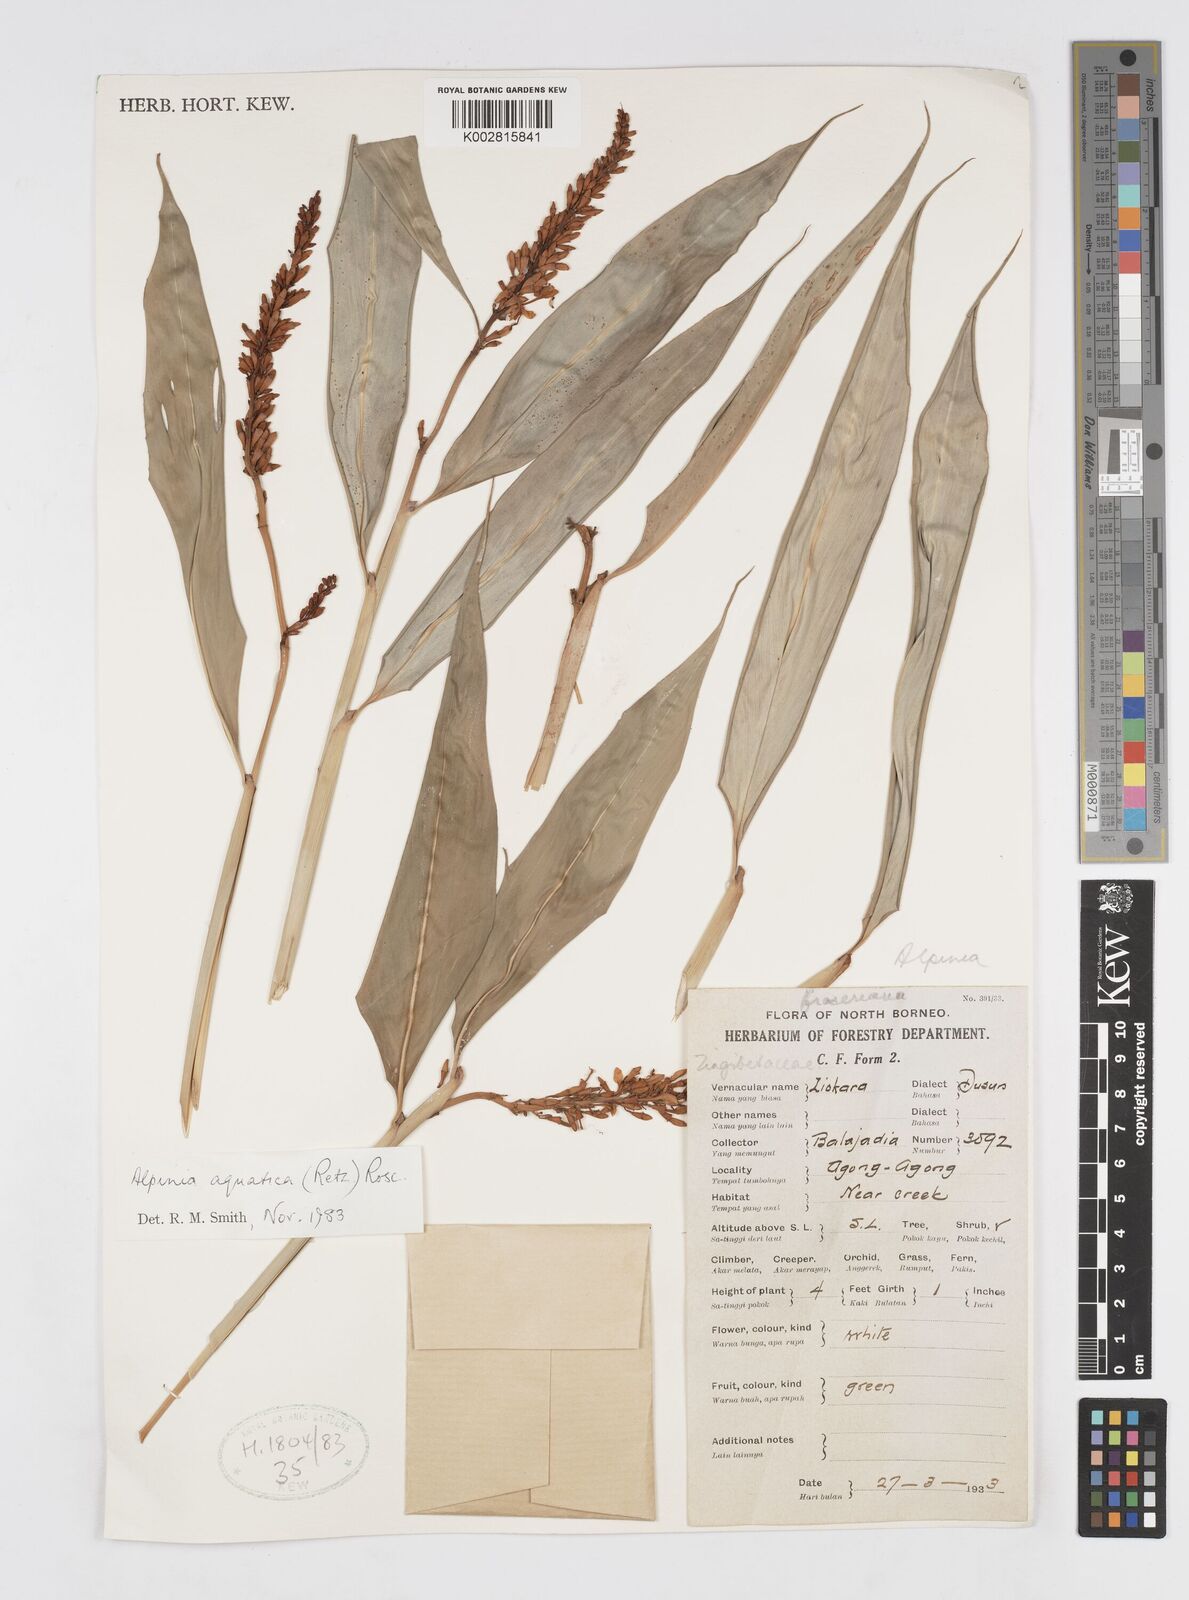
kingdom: Plantae
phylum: Tracheophyta
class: Liliopsida
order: Zingiberales
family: Zingiberaceae
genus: Alpinia
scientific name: Alpinia aquatica
